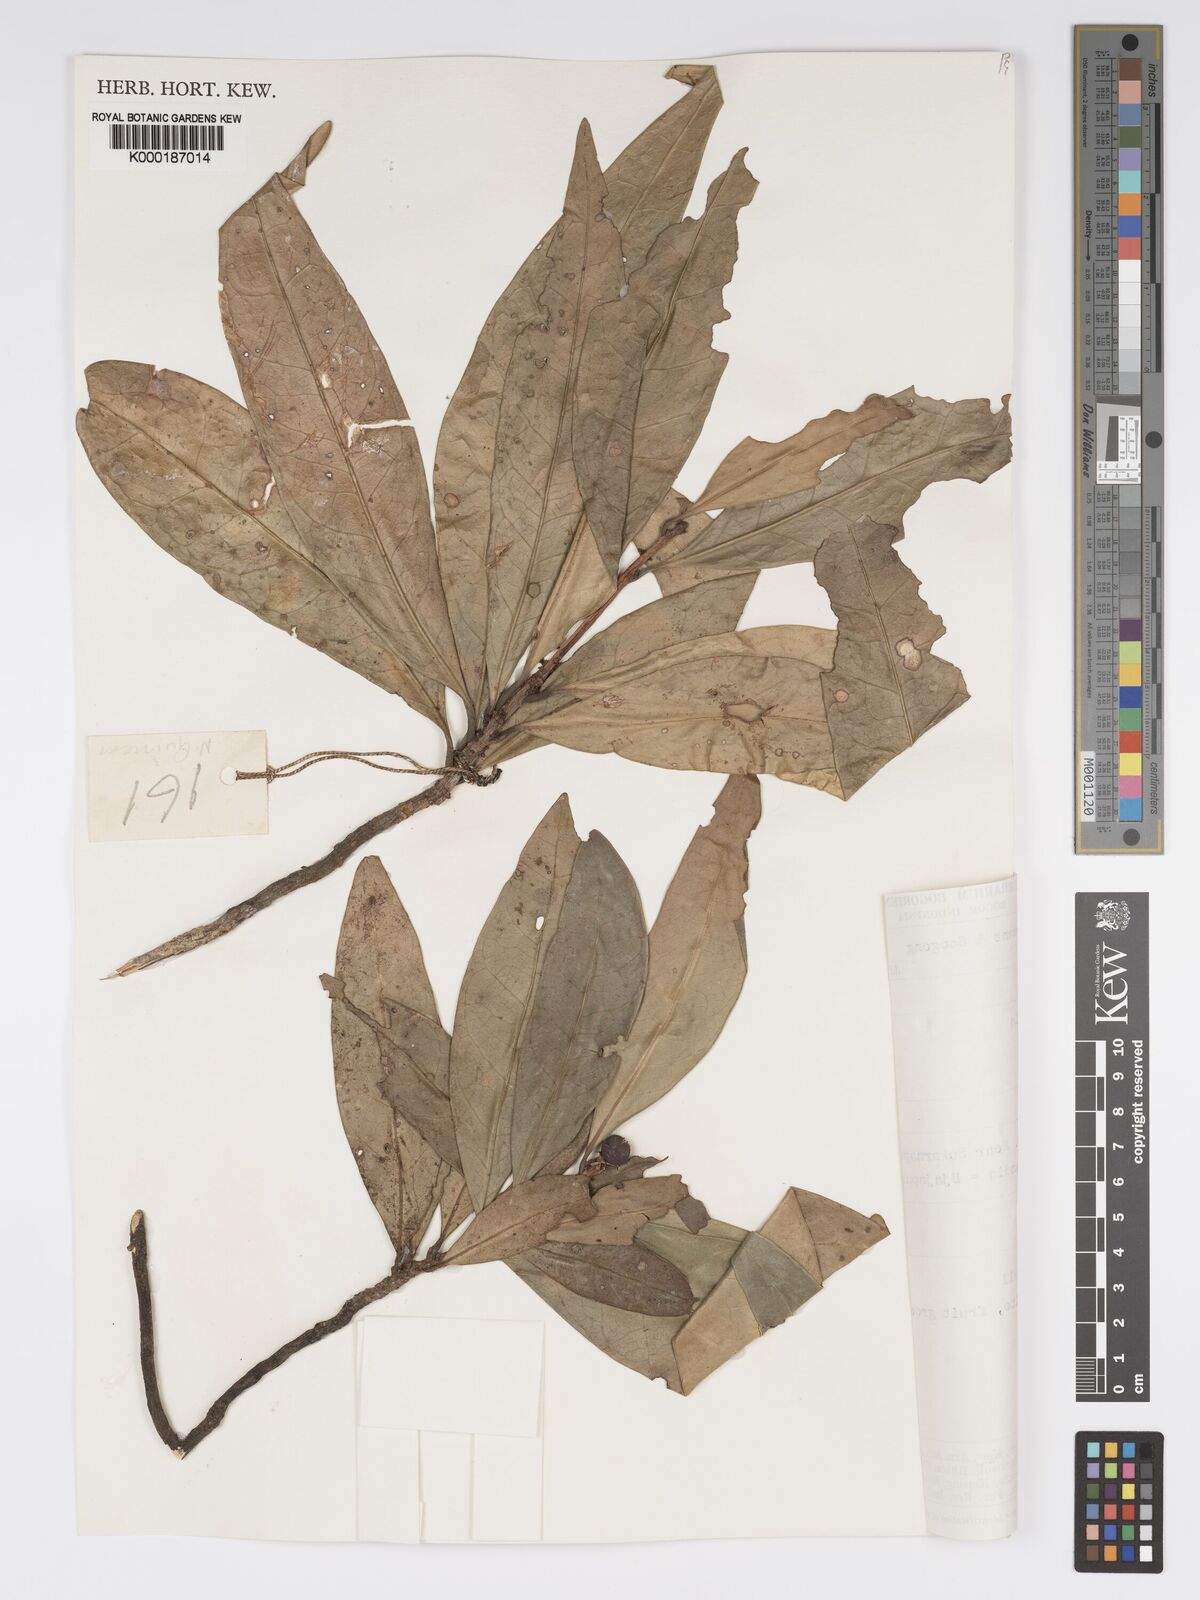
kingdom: Plantae
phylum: Tracheophyta
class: Magnoliopsida
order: Malpighiales
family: Phyllanthaceae
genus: Actephila
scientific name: Actephila lindleyi
